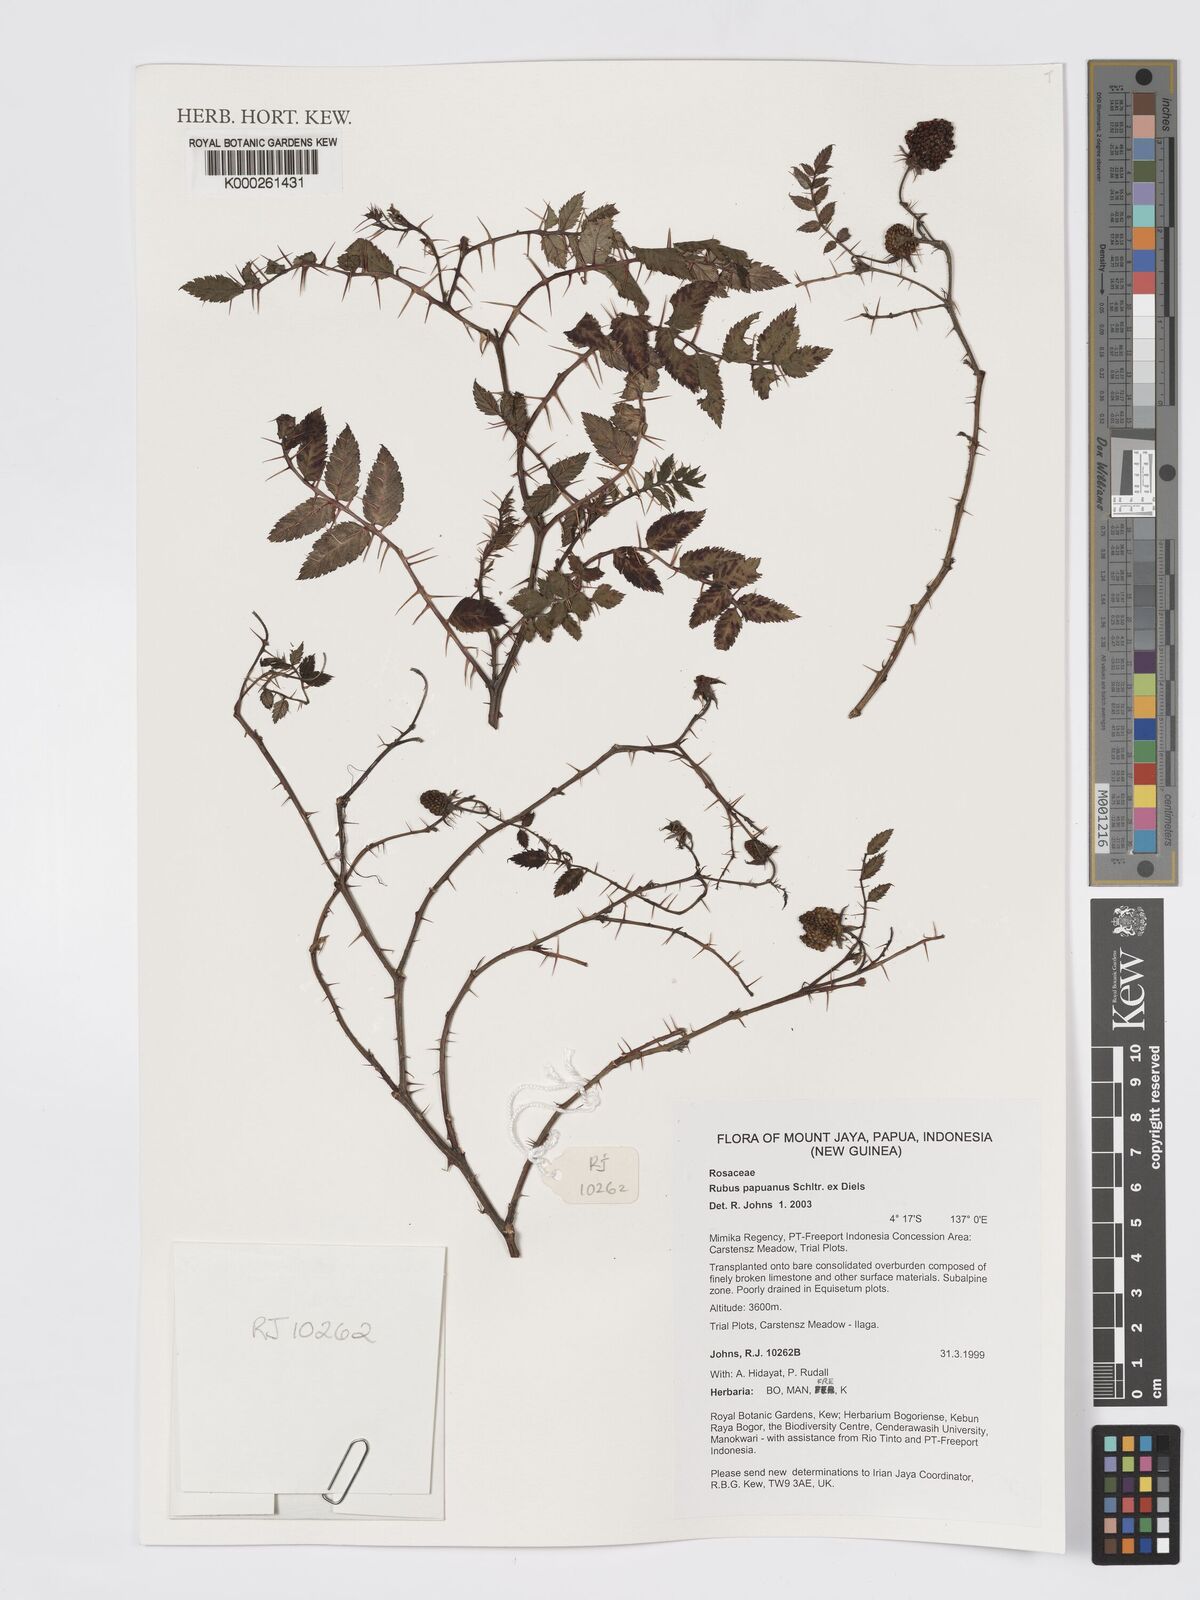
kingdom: Plantae
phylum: Tracheophyta
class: Magnoliopsida
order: Rosales
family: Rosaceae
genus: Rubus
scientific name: Rubus papuanus
